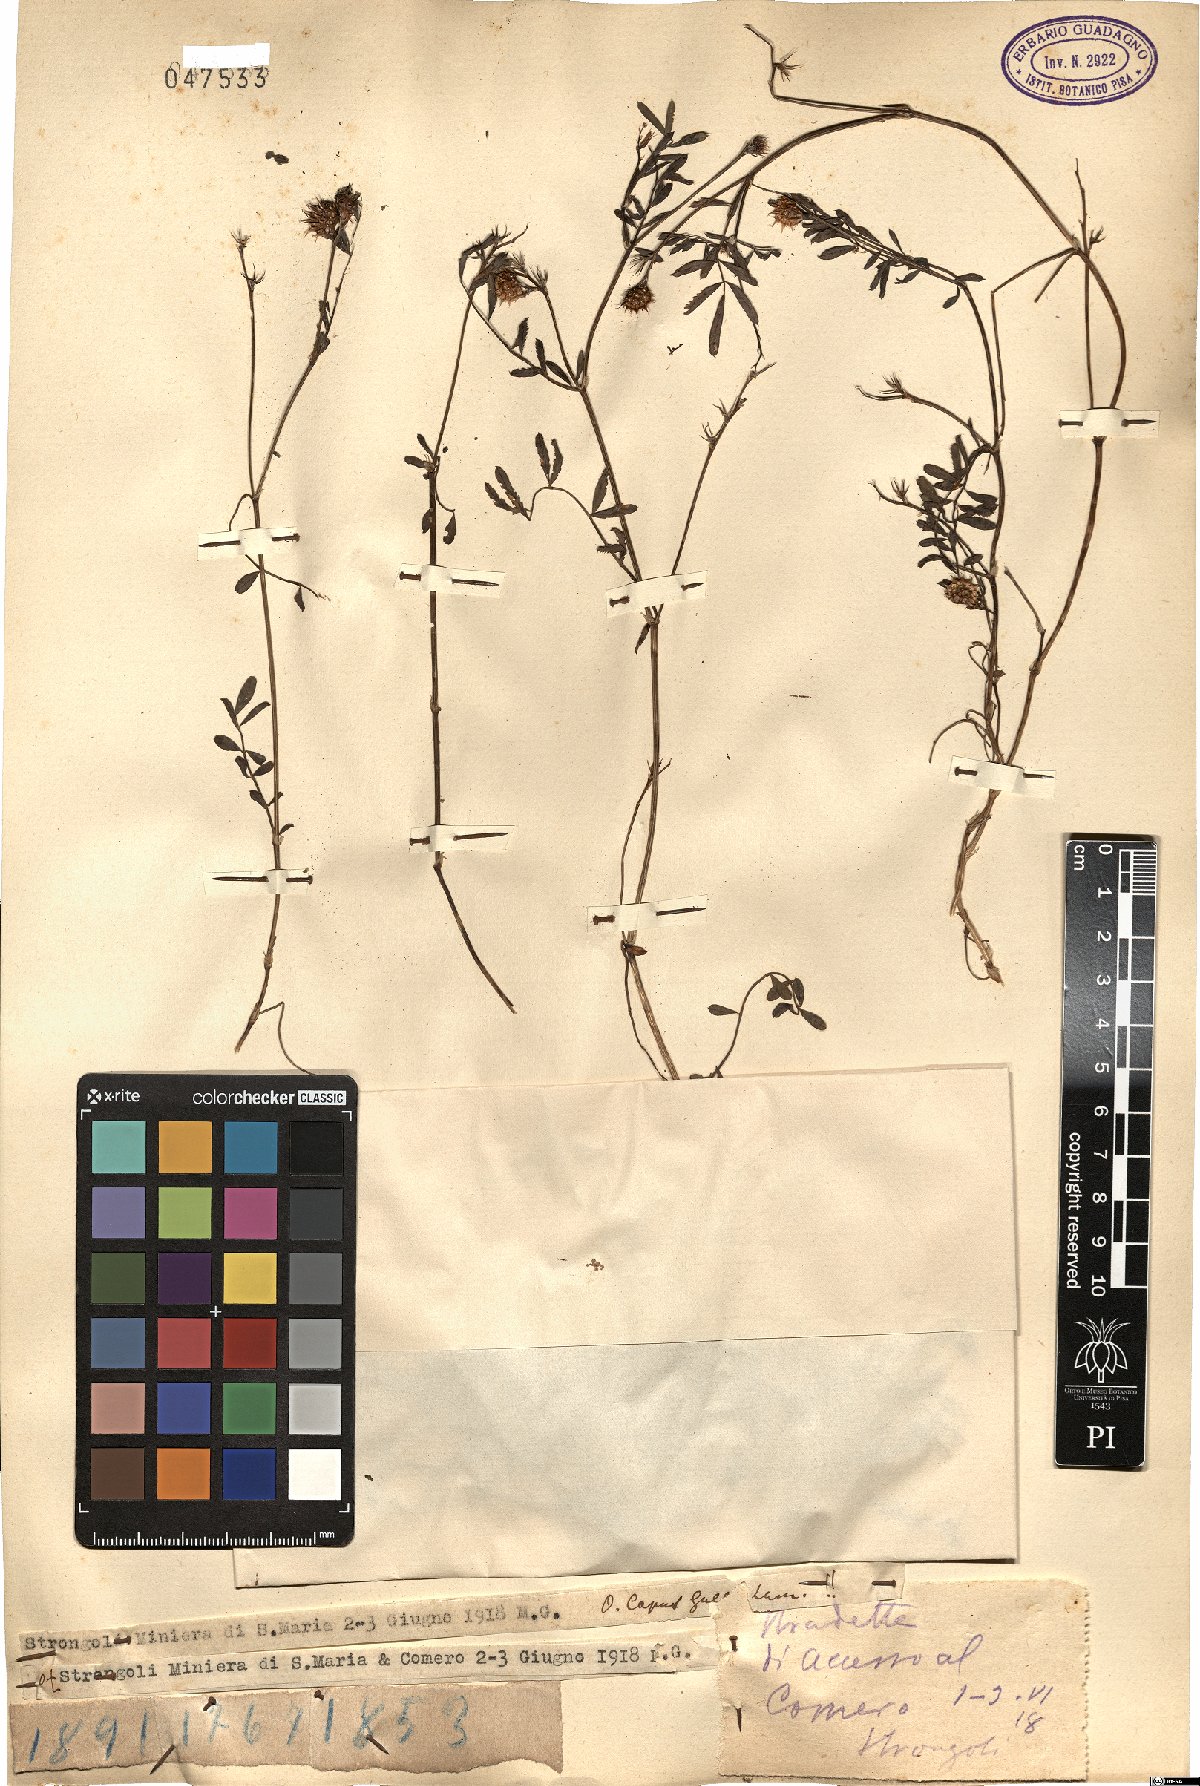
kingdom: Plantae
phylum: Tracheophyta
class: Magnoliopsida
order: Fabales
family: Fabaceae
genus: Onobrychis
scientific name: Onobrychis caput-galli
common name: Cockscomb sainfoin
